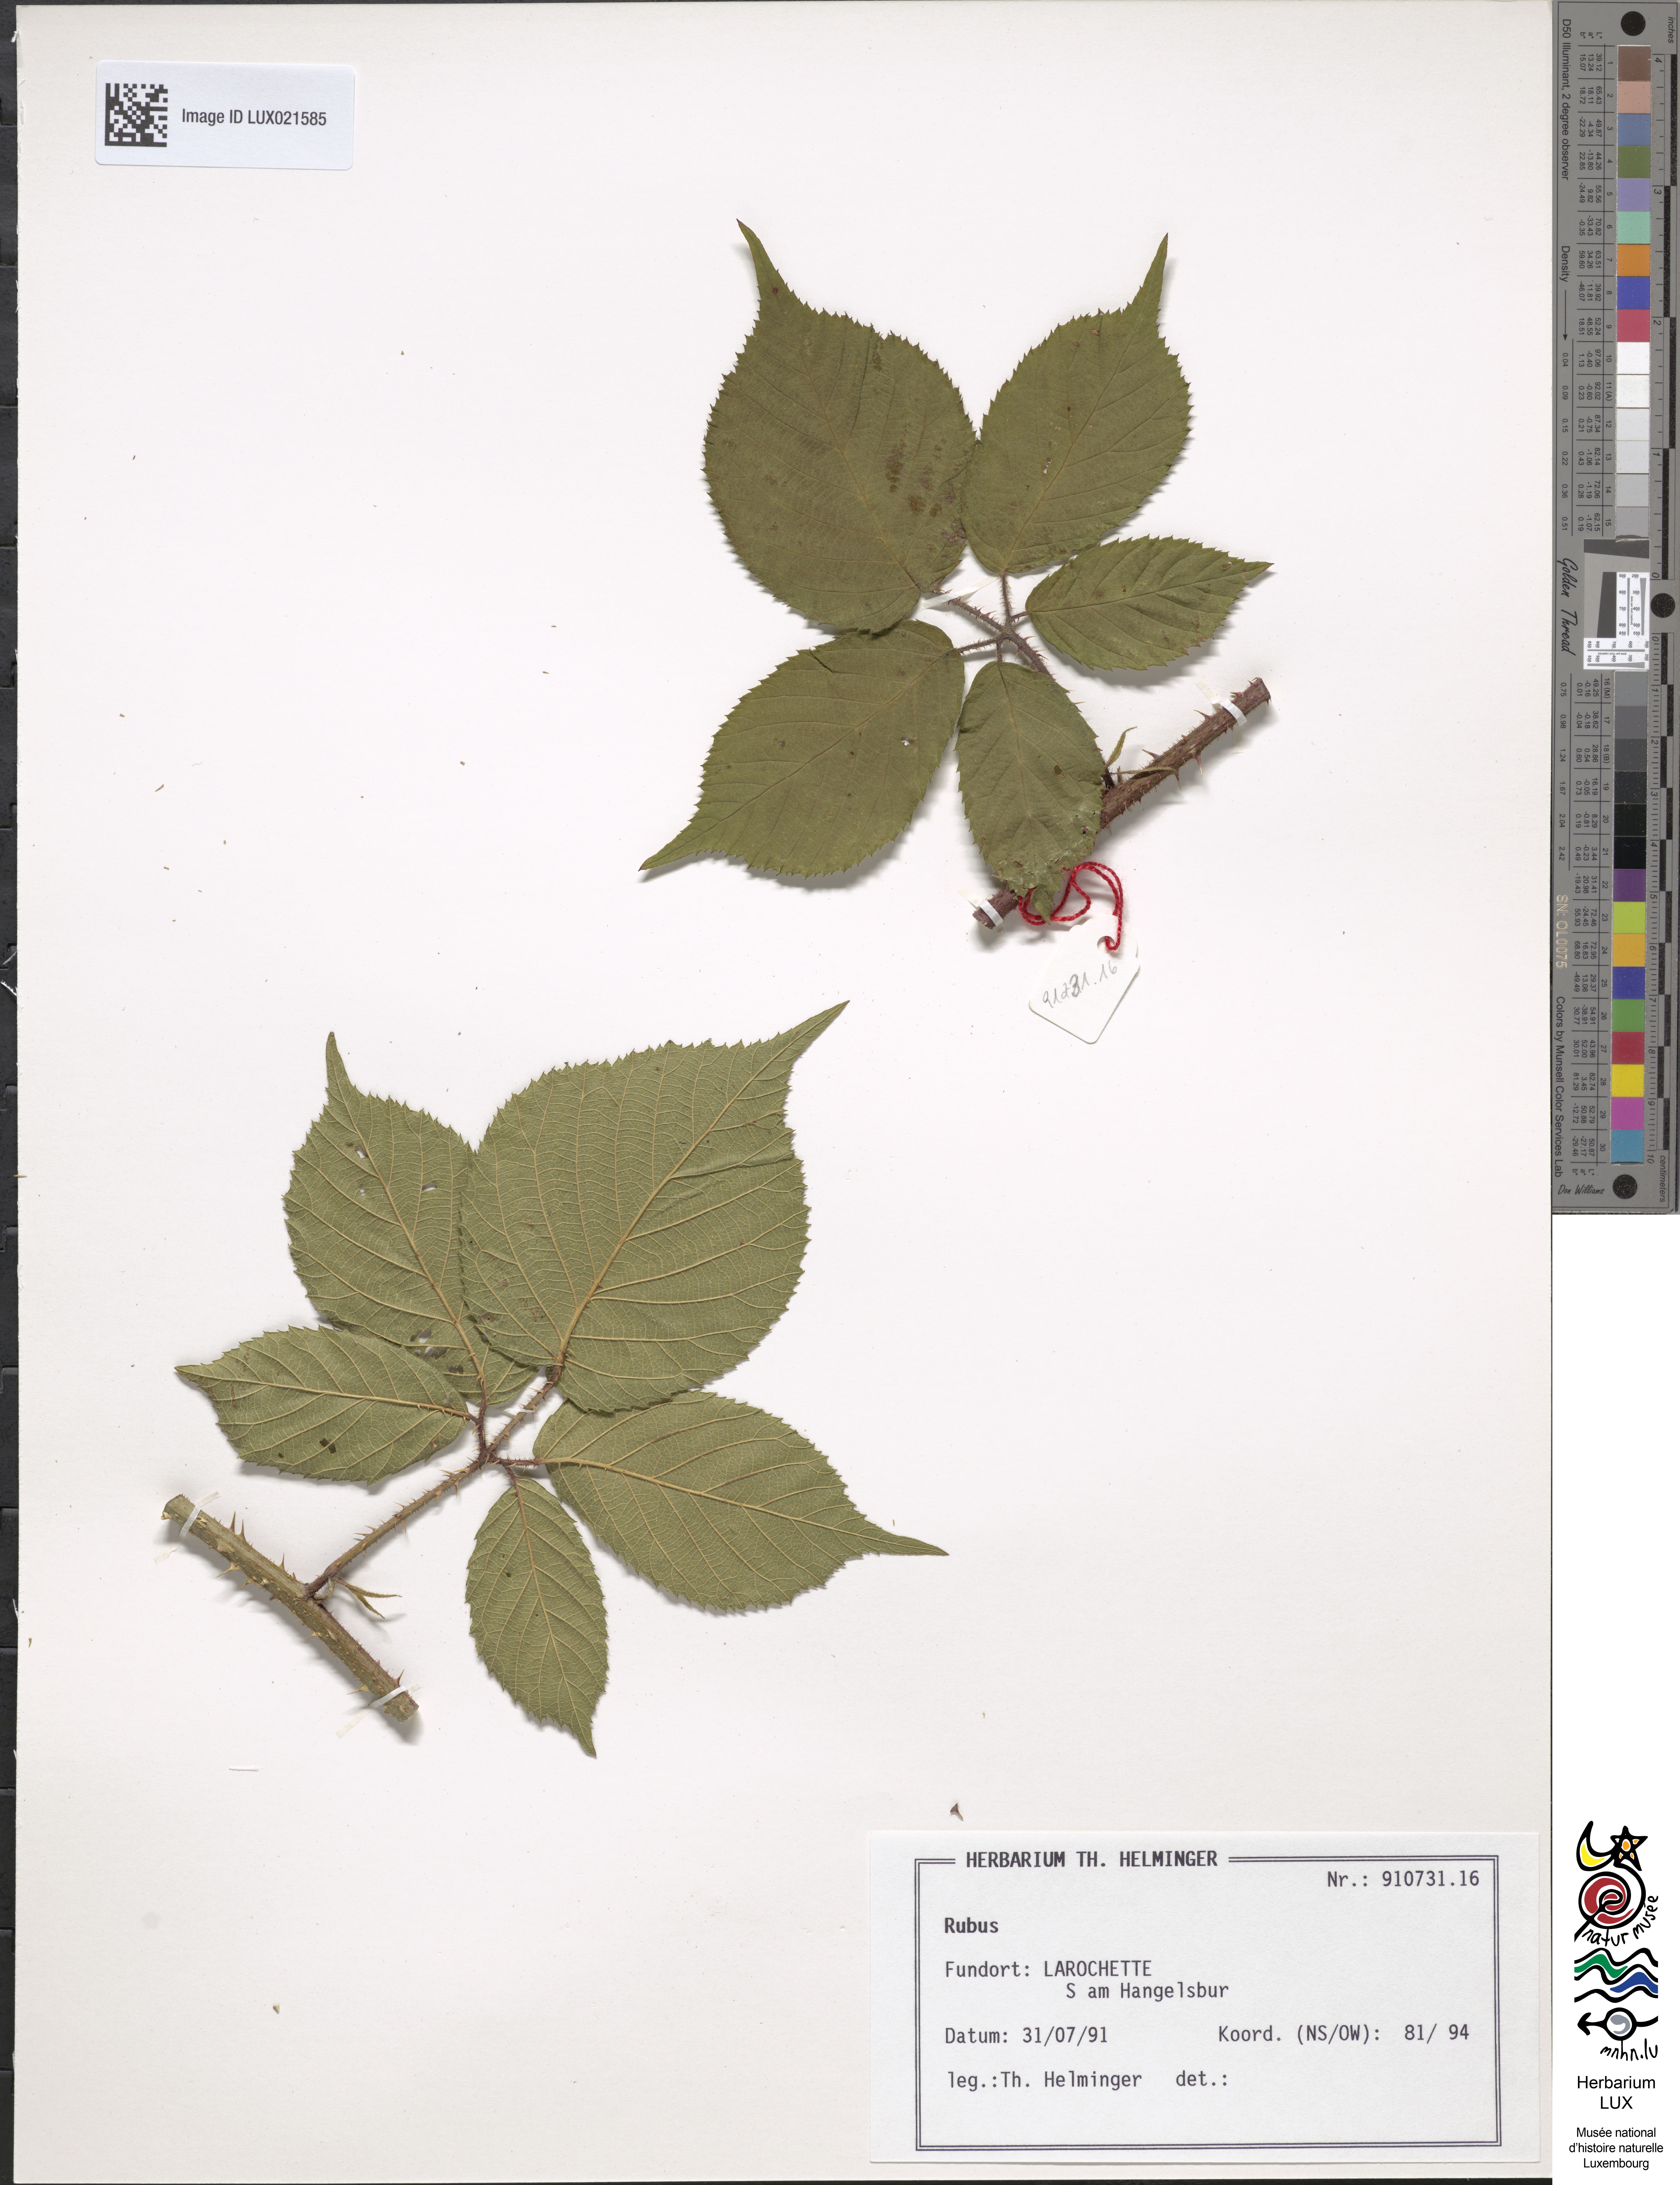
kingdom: Plantae
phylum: Tracheophyta
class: Magnoliopsida
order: Rosales
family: Rosaceae
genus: Rubus
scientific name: Rubus
